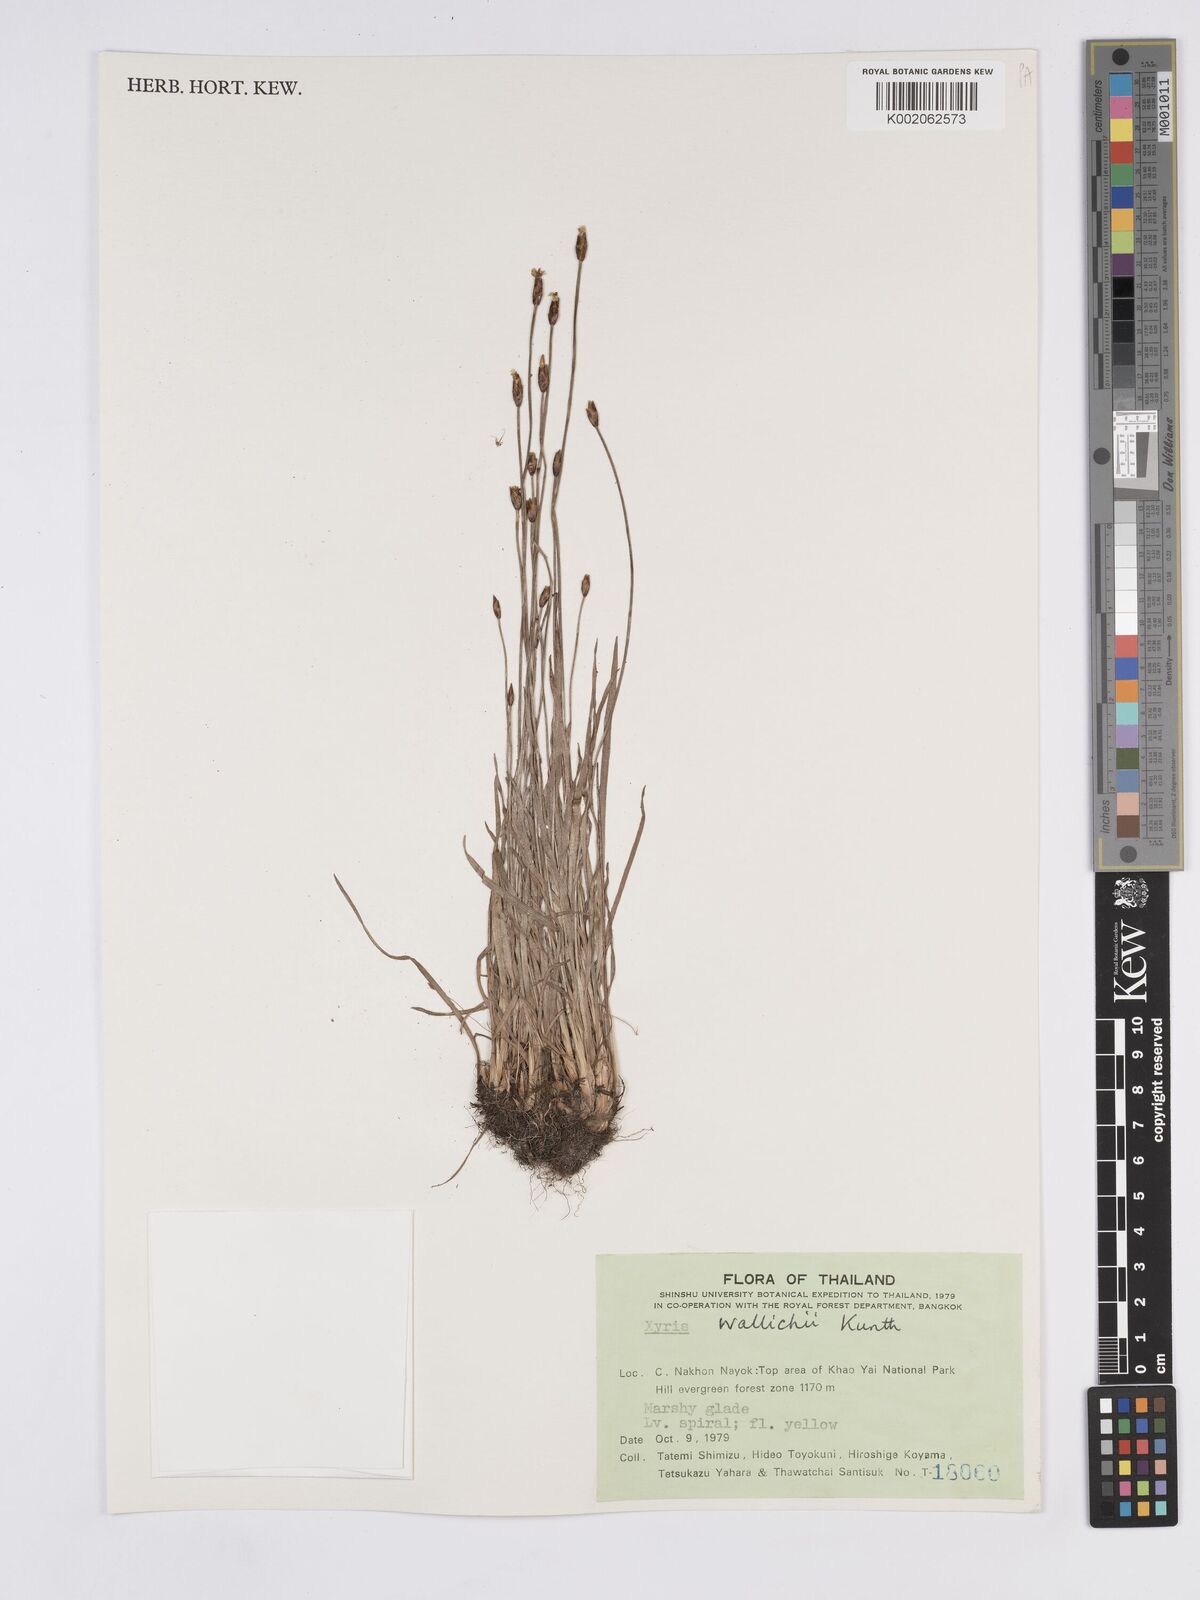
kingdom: Plantae
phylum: Tracheophyta
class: Liliopsida
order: Poales
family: Xyridaceae
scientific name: Xyridaceae
